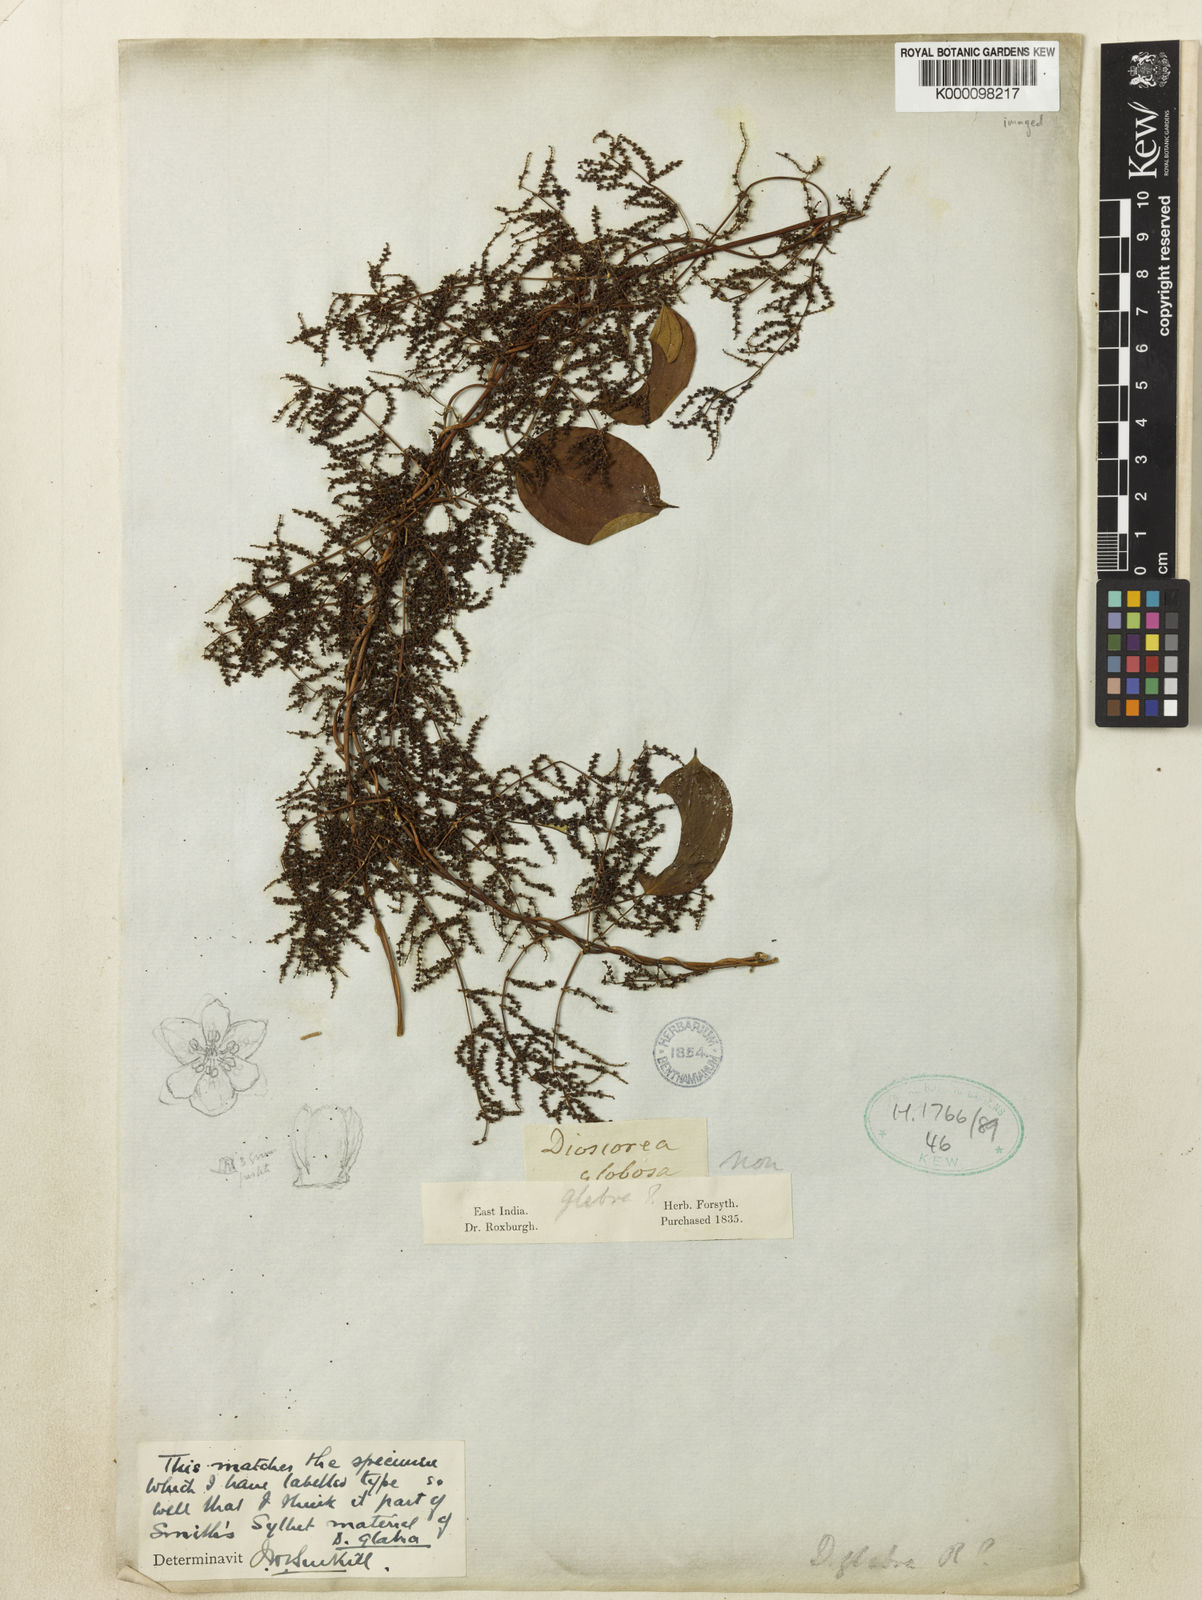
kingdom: Plantae
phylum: Tracheophyta
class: Liliopsida
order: Dioscoreales
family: Dioscoreaceae
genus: Dioscorea
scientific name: Dioscorea glabra
